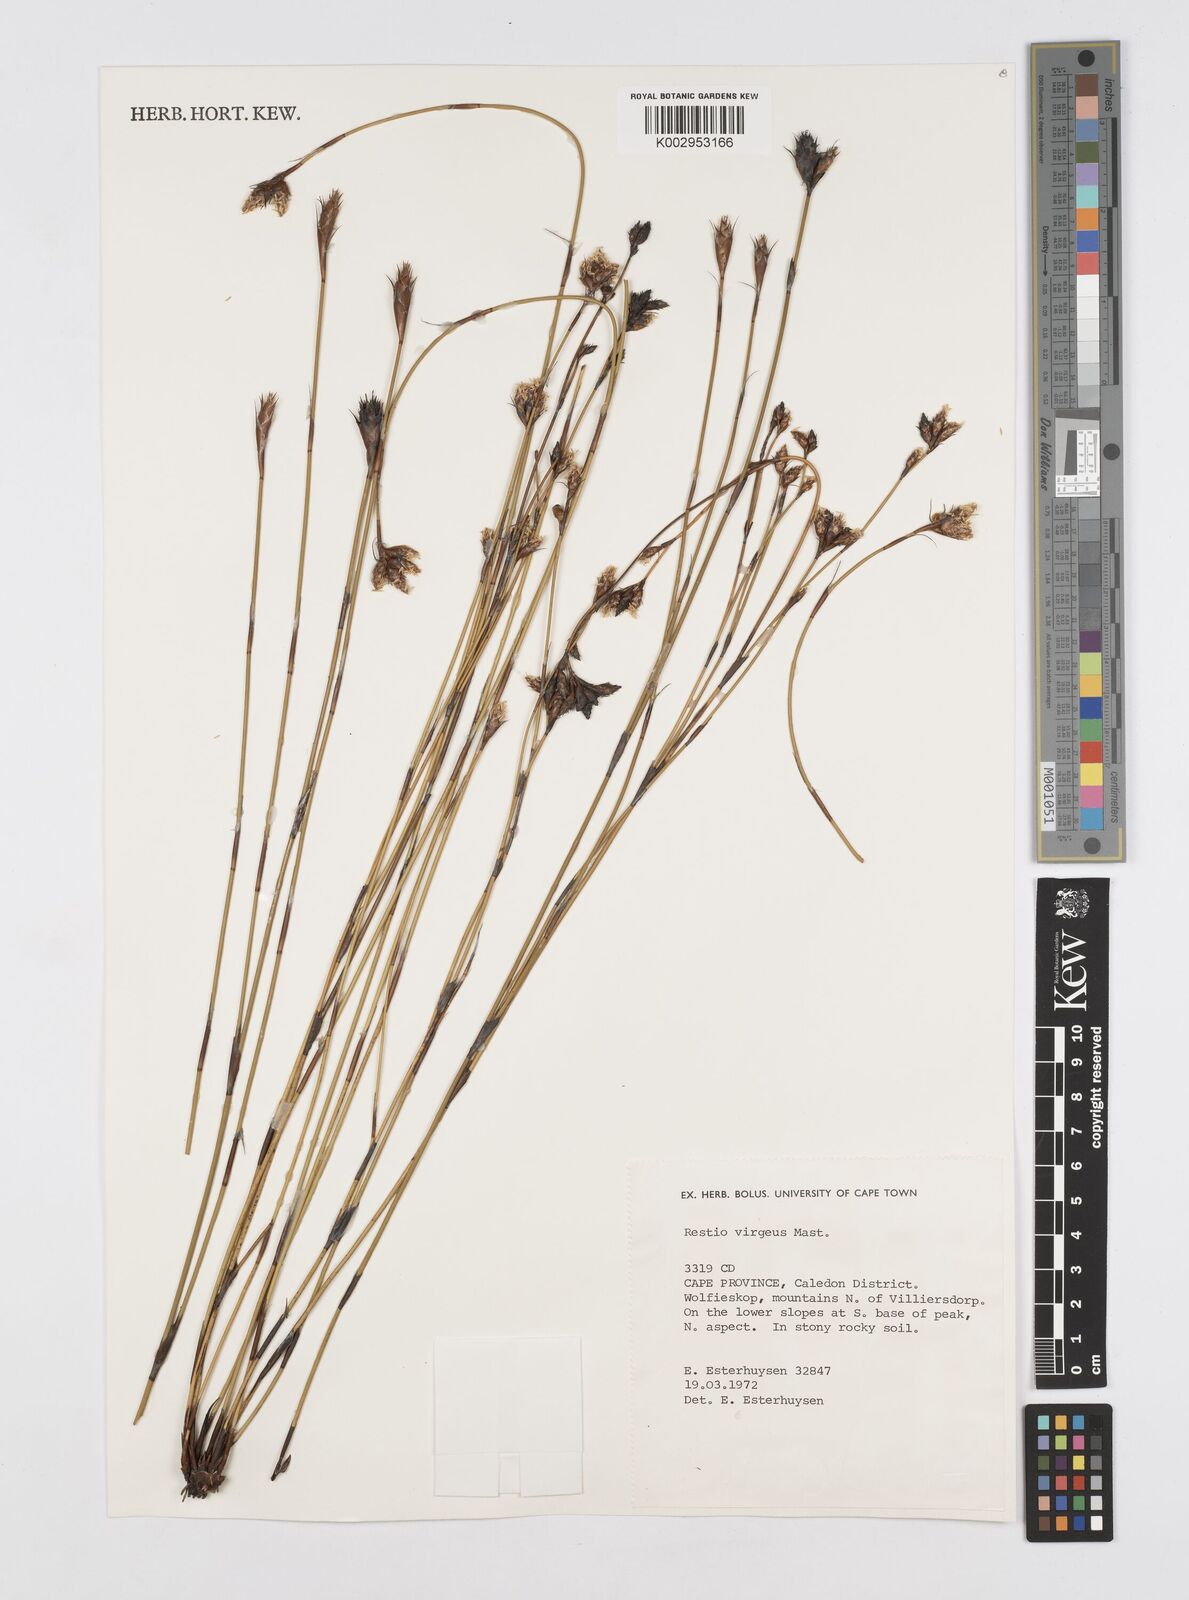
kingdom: Plantae
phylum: Tracheophyta
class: Liliopsida
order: Poales
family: Restionaceae
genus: Restio
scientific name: Restio virgeus
